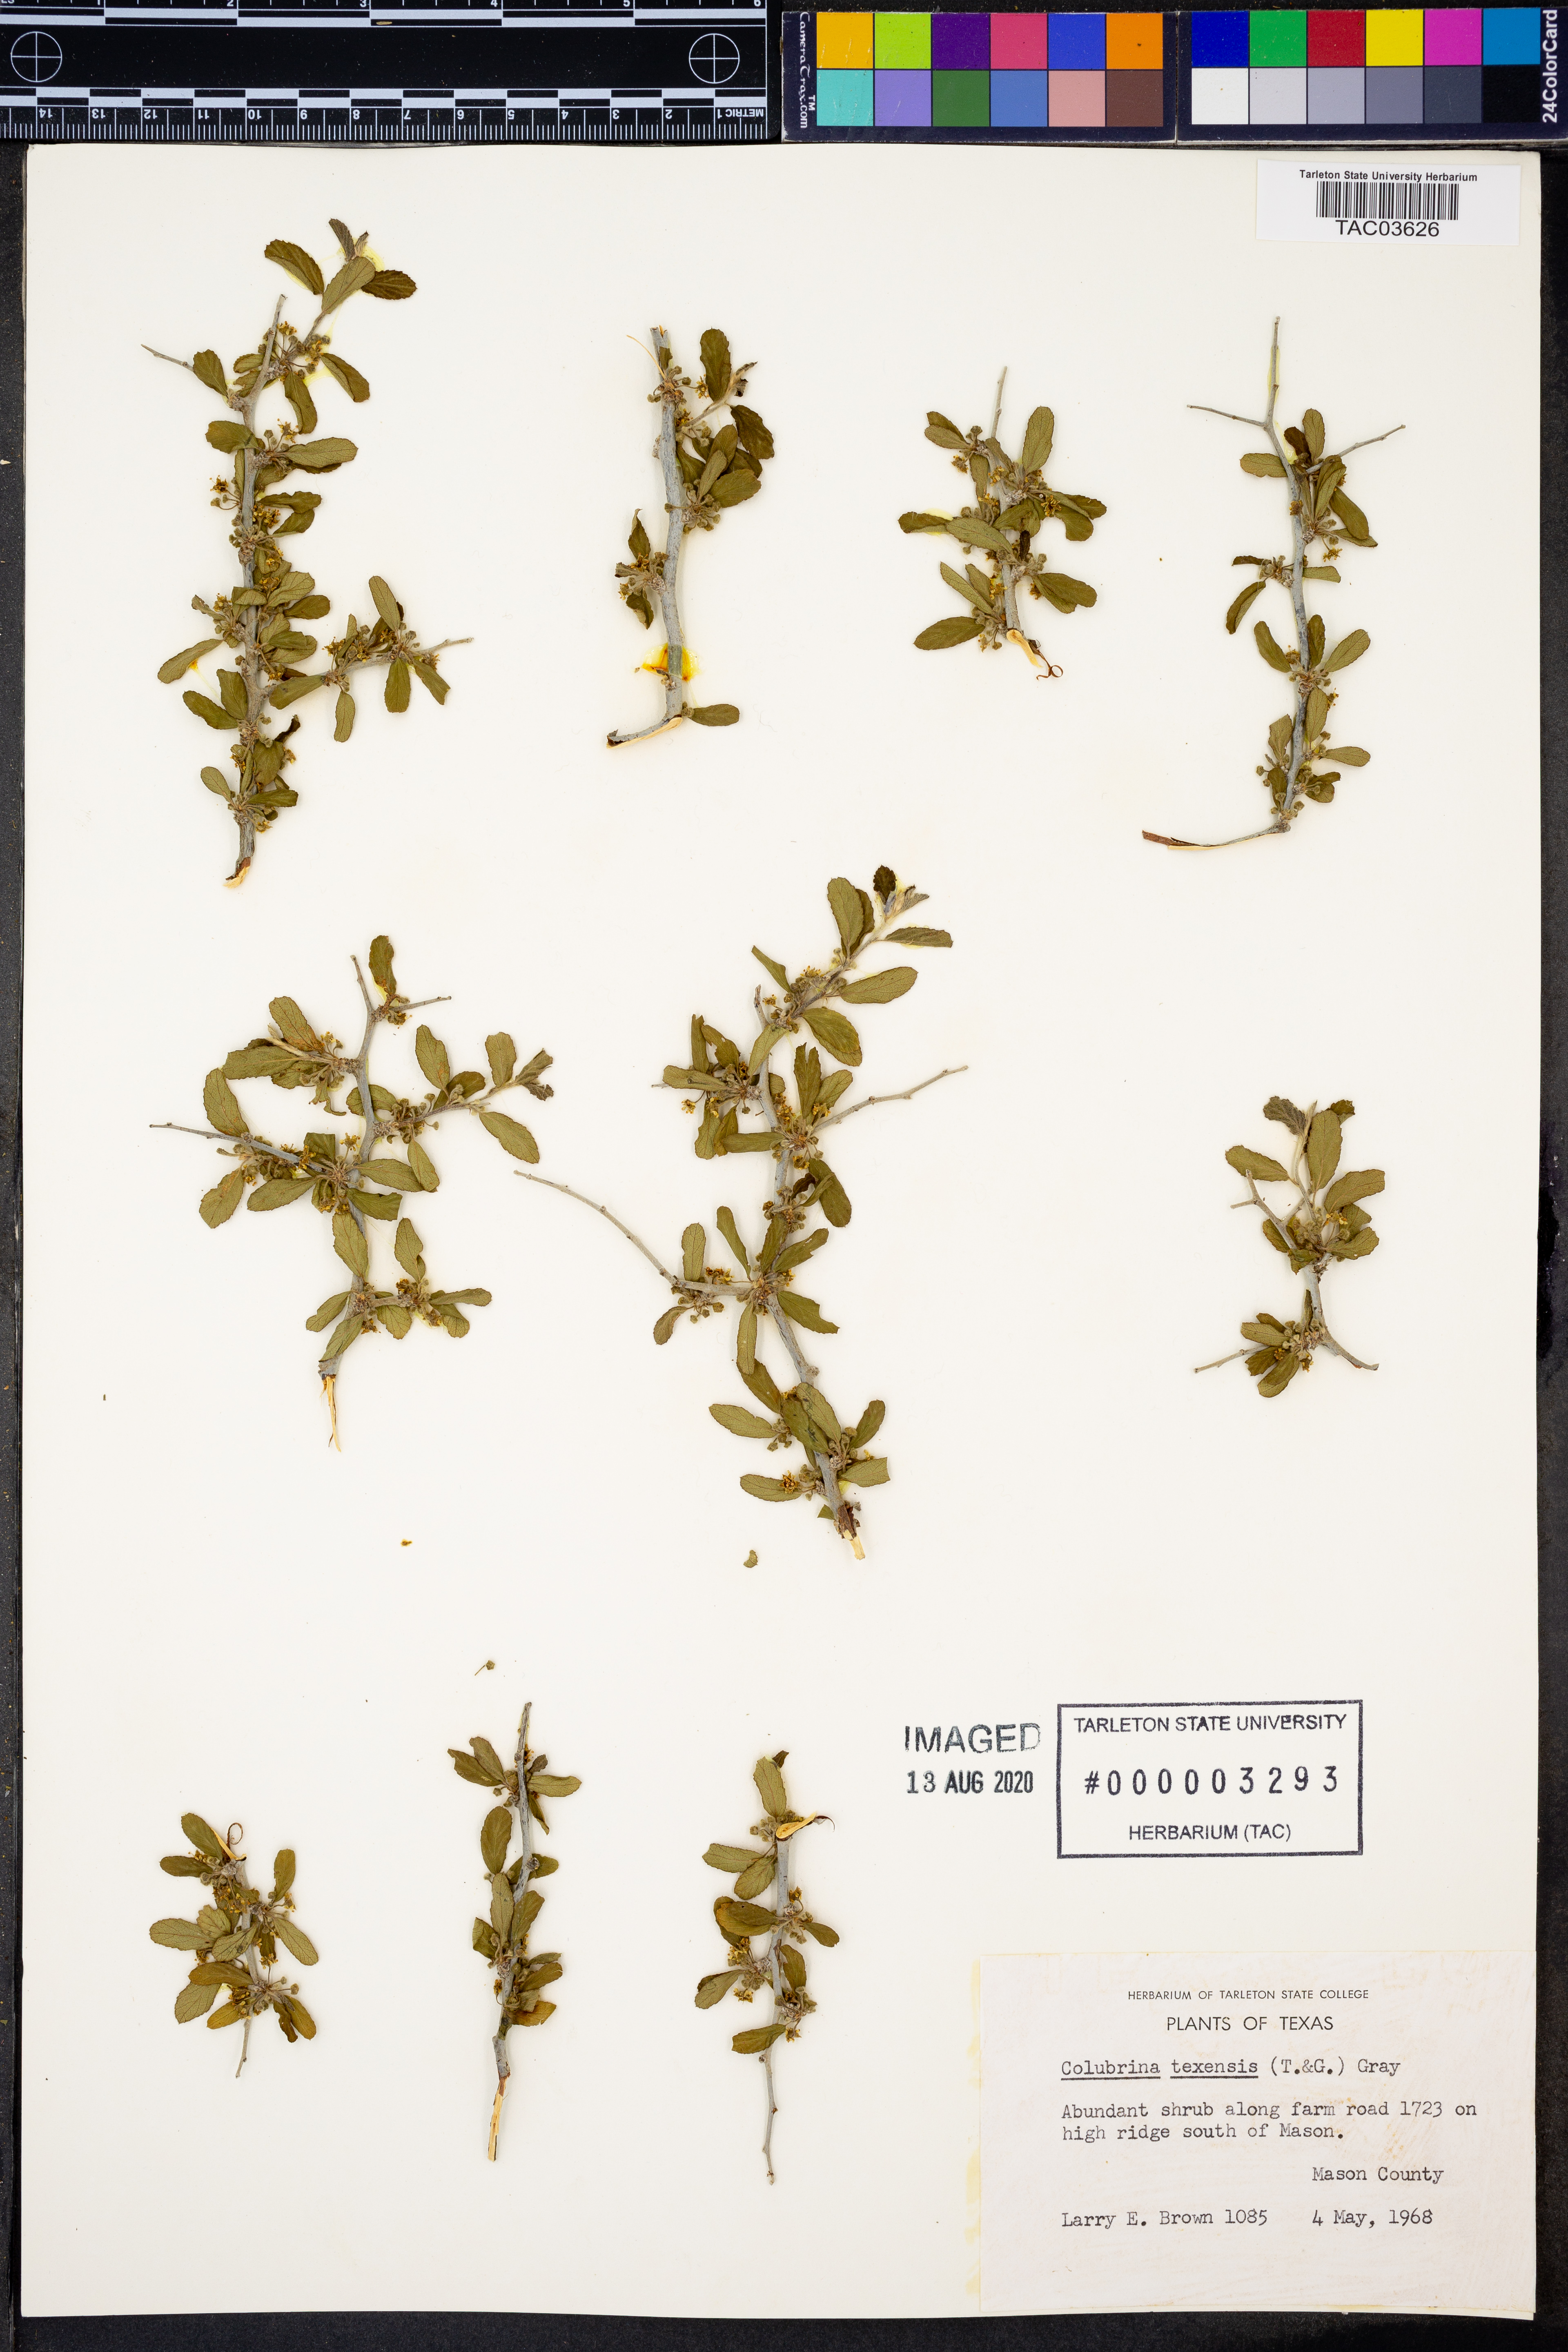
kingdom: Plantae
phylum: Tracheophyta
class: Magnoliopsida
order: Rosales
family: Rhamnaceae
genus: Colubrina
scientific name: Colubrina texensis
